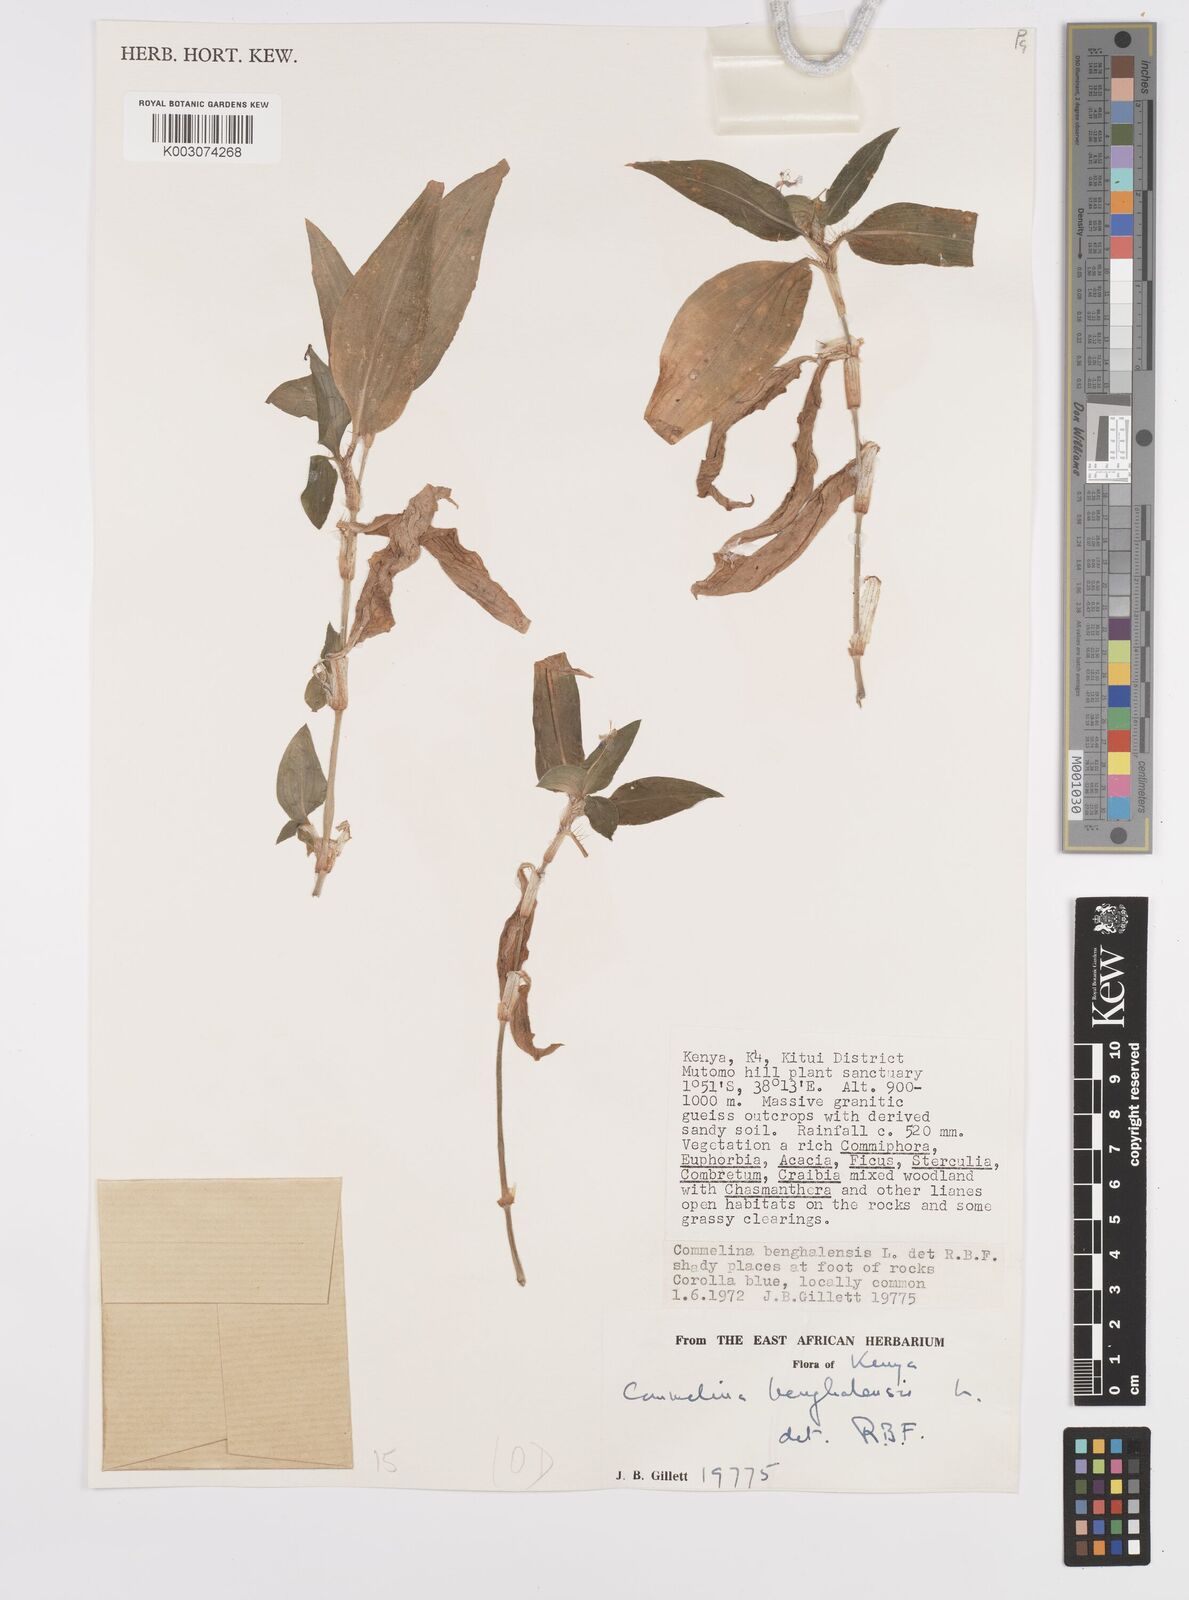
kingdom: Plantae
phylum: Tracheophyta
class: Liliopsida
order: Commelinales
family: Commelinaceae
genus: Commelina
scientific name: Commelina benghalensis
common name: Jio
